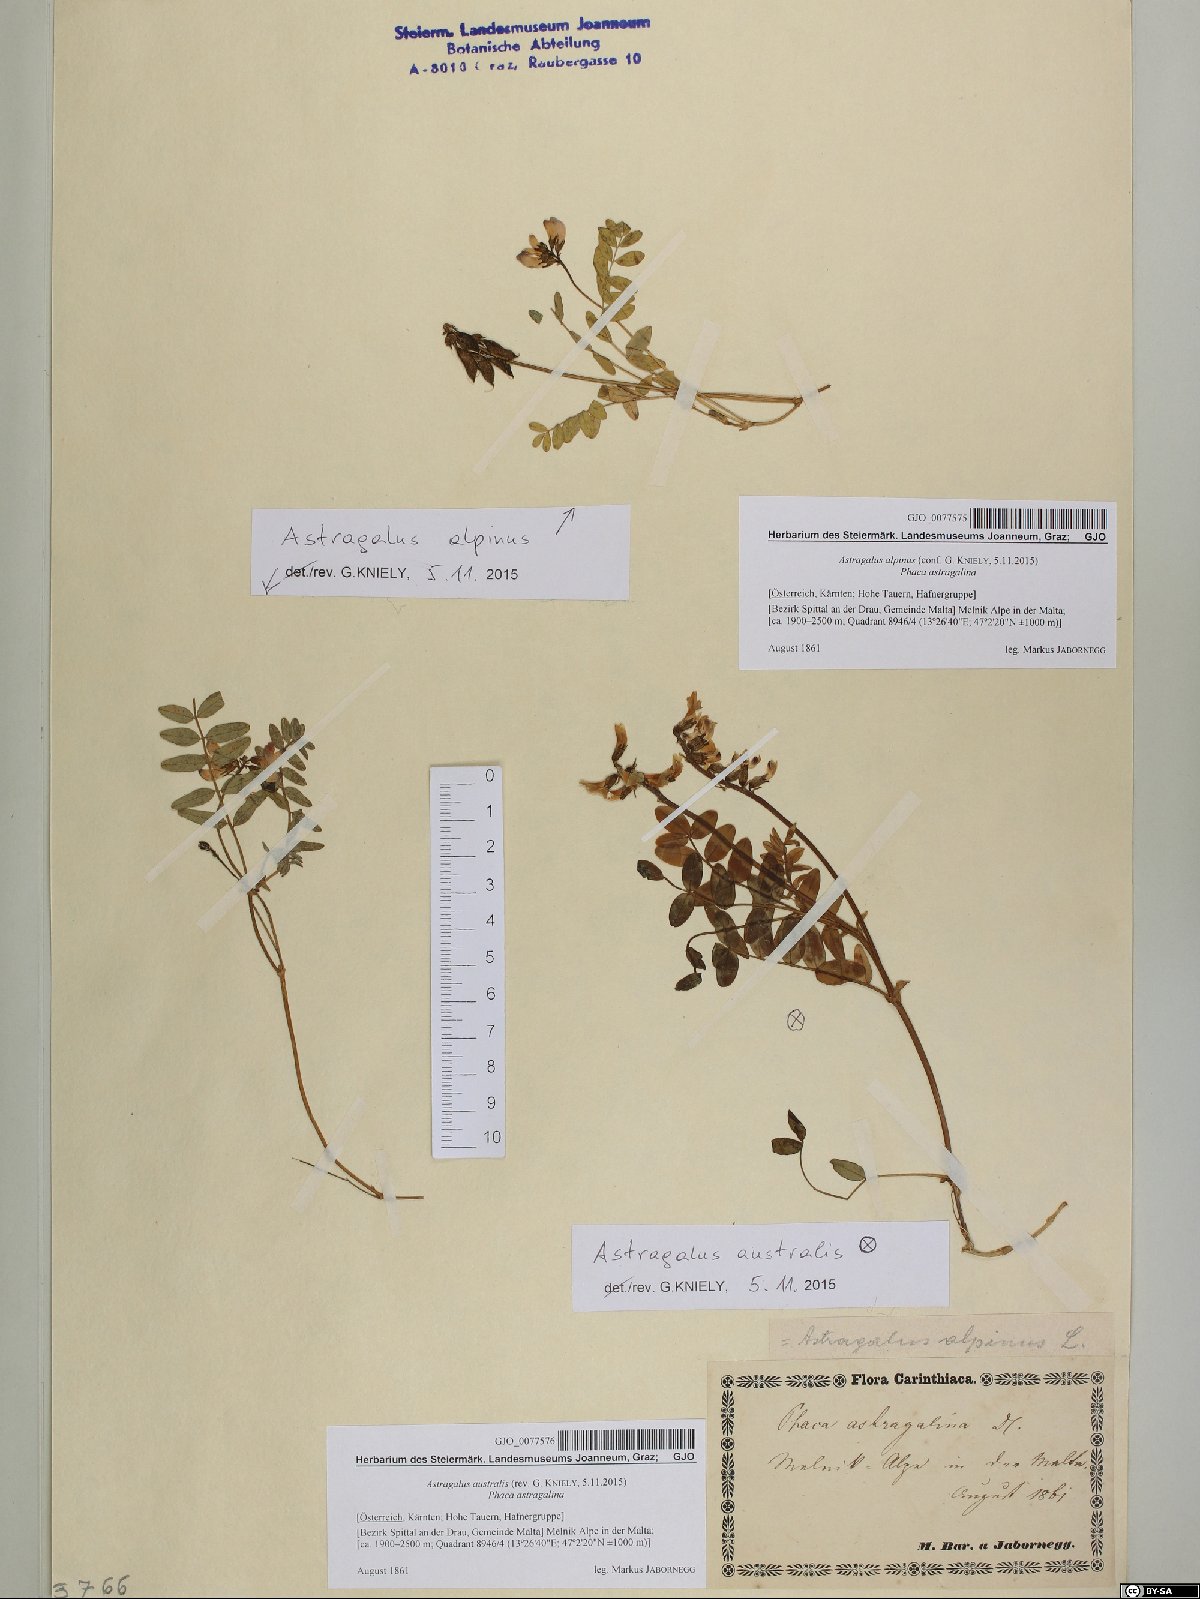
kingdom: Plantae
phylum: Tracheophyta
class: Magnoliopsida
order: Fabales
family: Fabaceae
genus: Astragalus
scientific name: Astragalus alpinus
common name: Alpine milk-vetch
